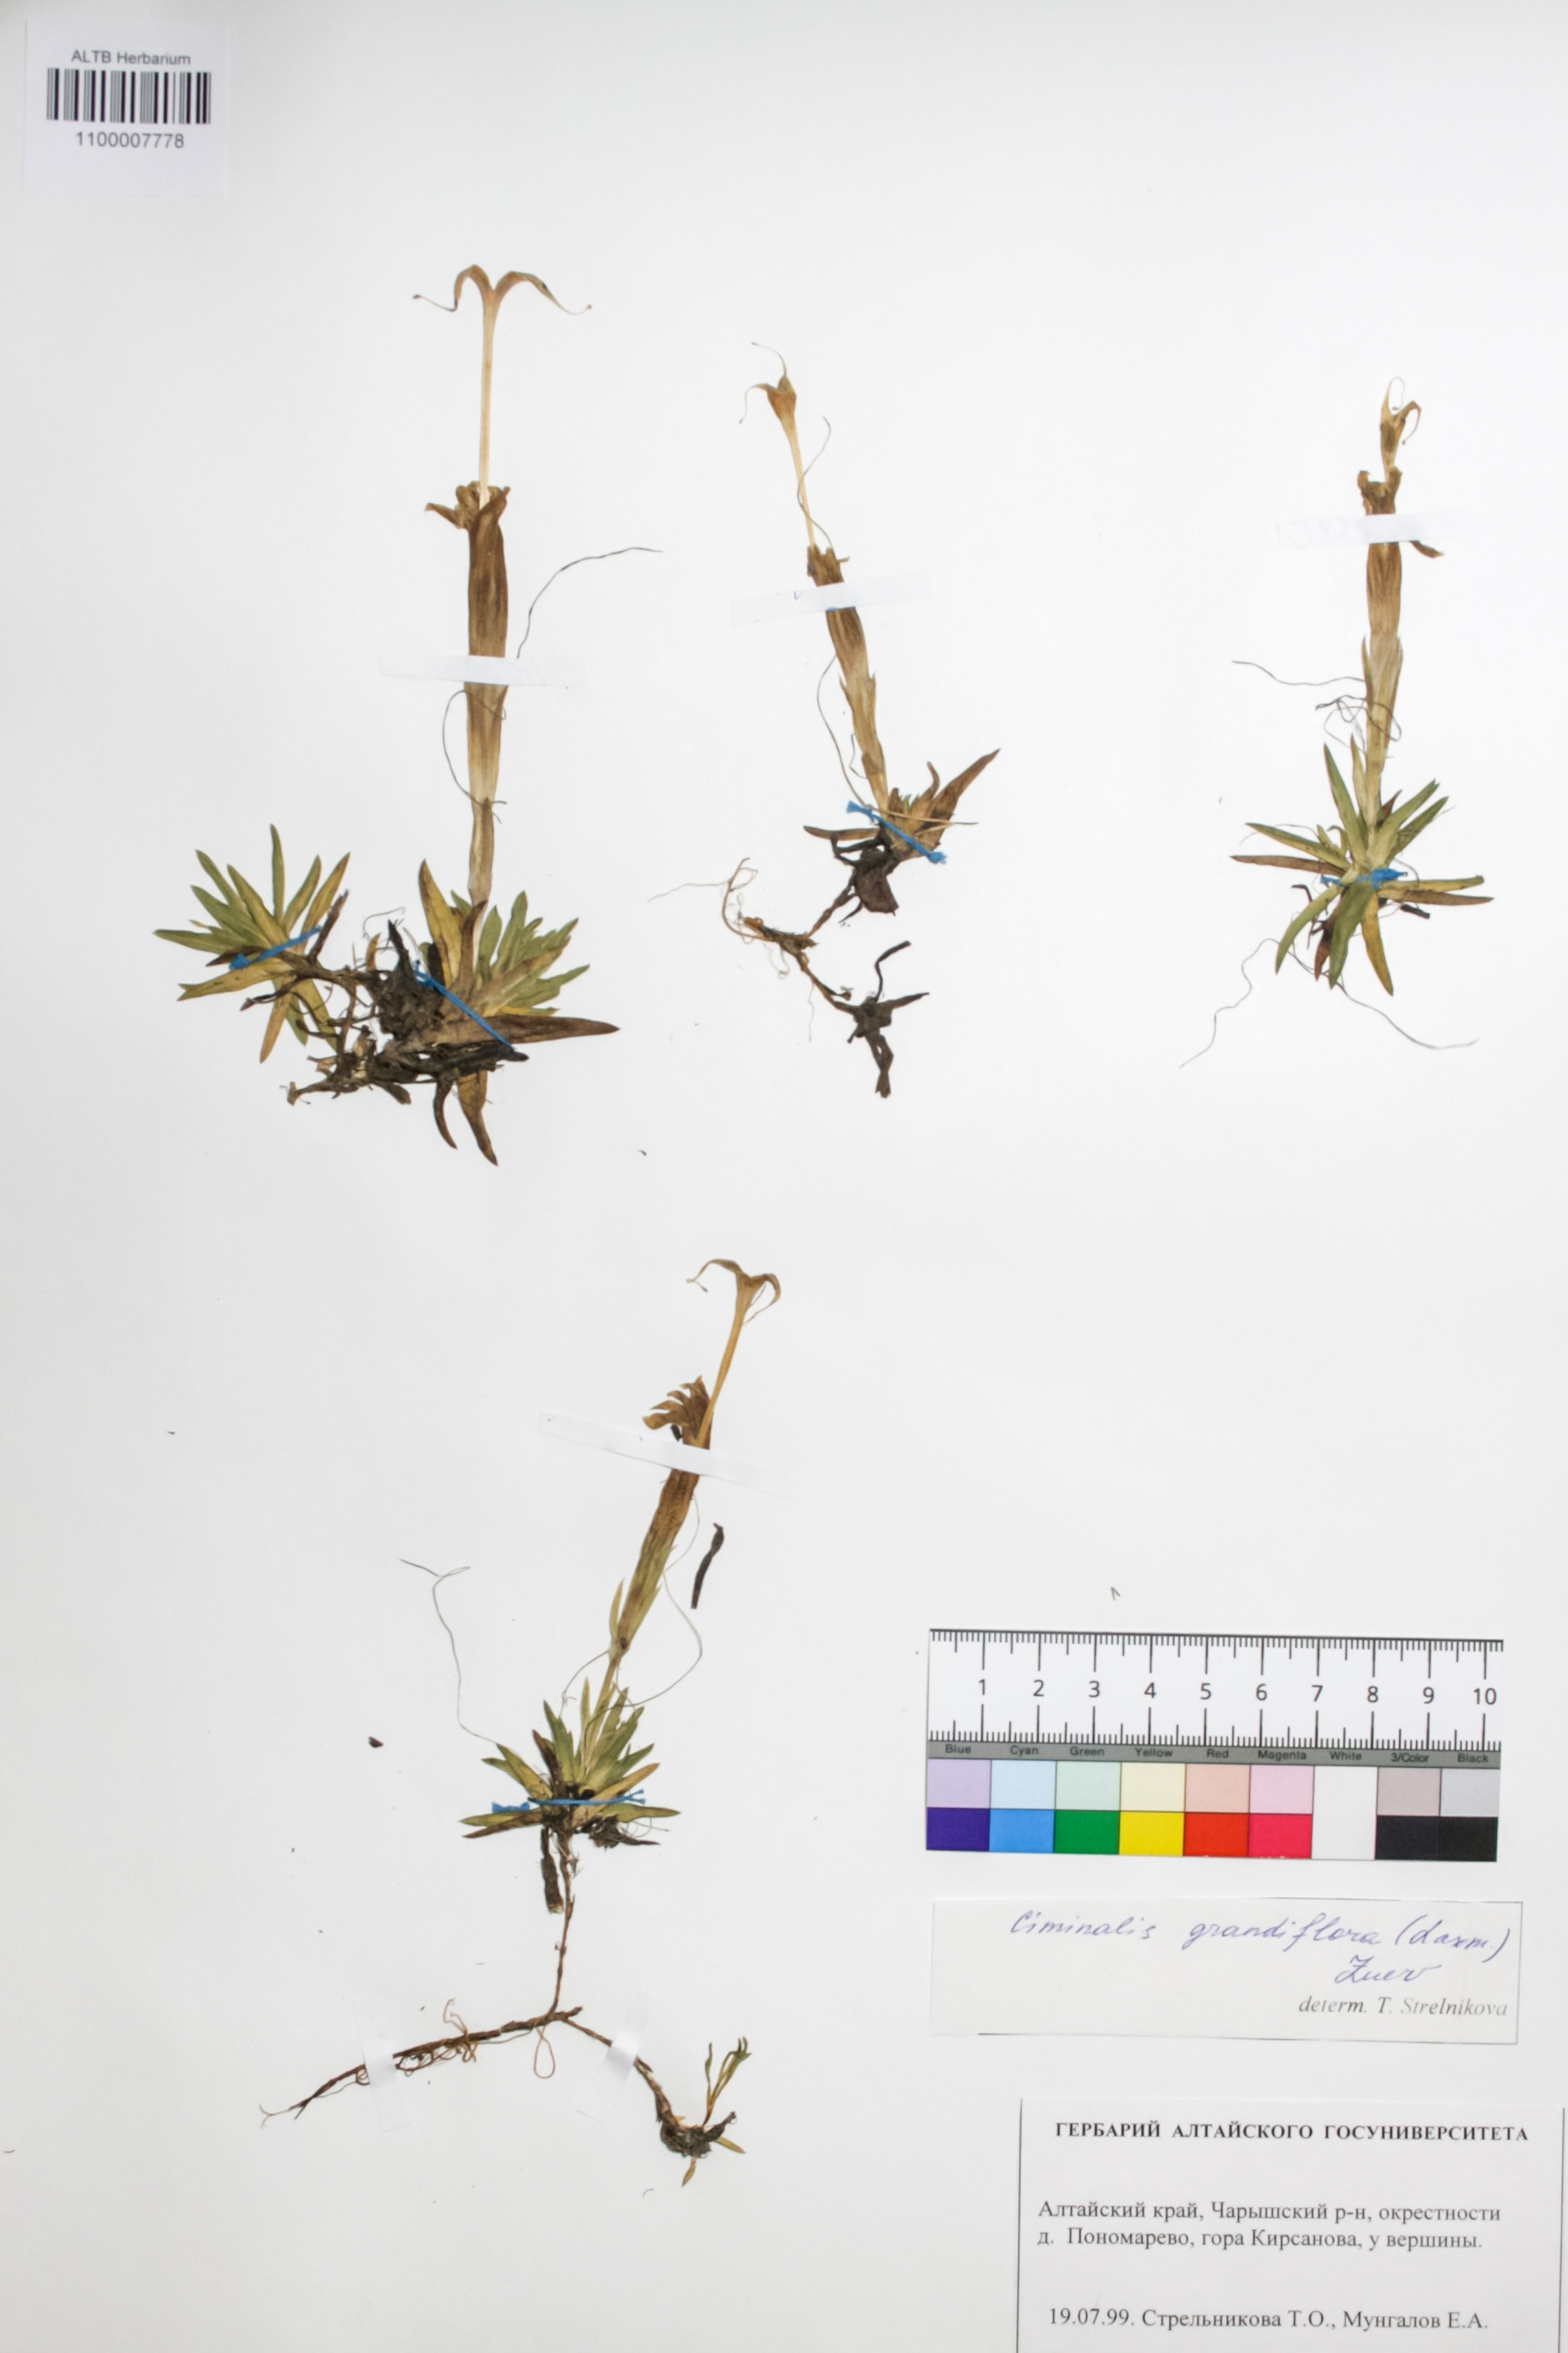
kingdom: Plantae
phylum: Tracheophyta
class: Magnoliopsida
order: Gentianales
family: Gentianaceae
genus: Gentiana
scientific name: Gentiana grandiflora
